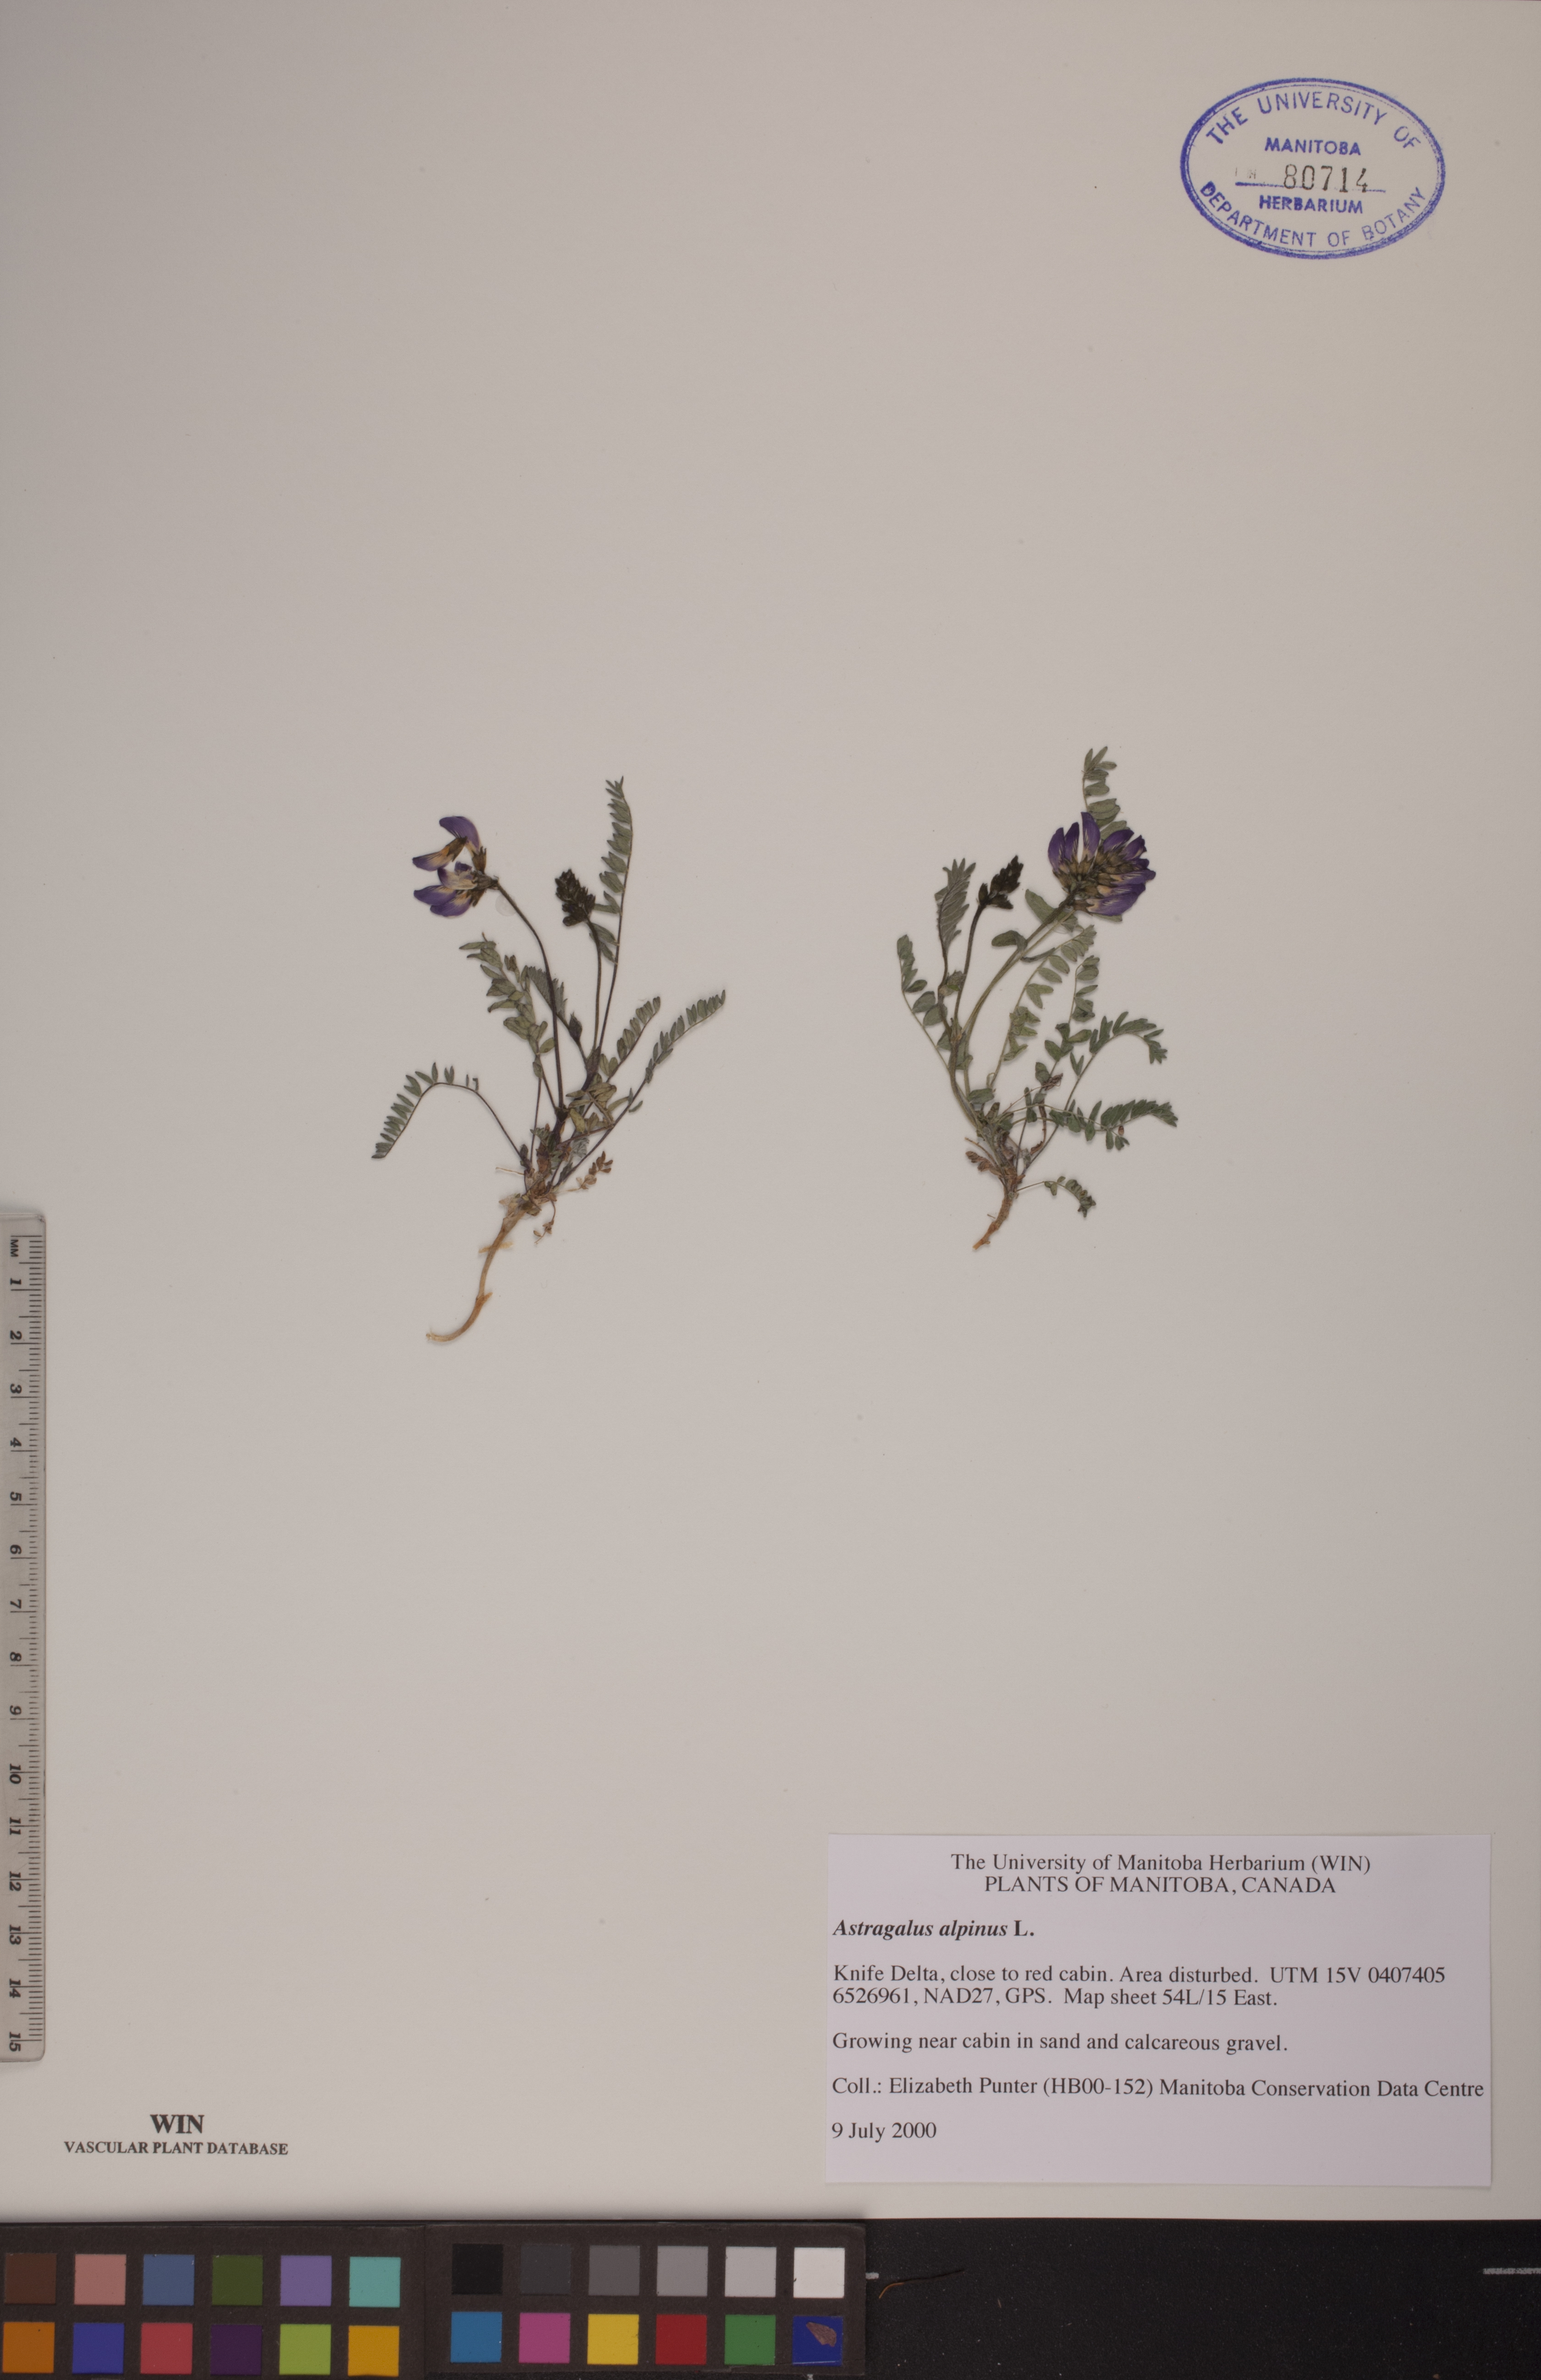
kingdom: Plantae
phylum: Tracheophyta
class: Magnoliopsida
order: Fabales
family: Fabaceae
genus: Astragalus
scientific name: Astragalus alpinus
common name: Alpine milk-vetch
